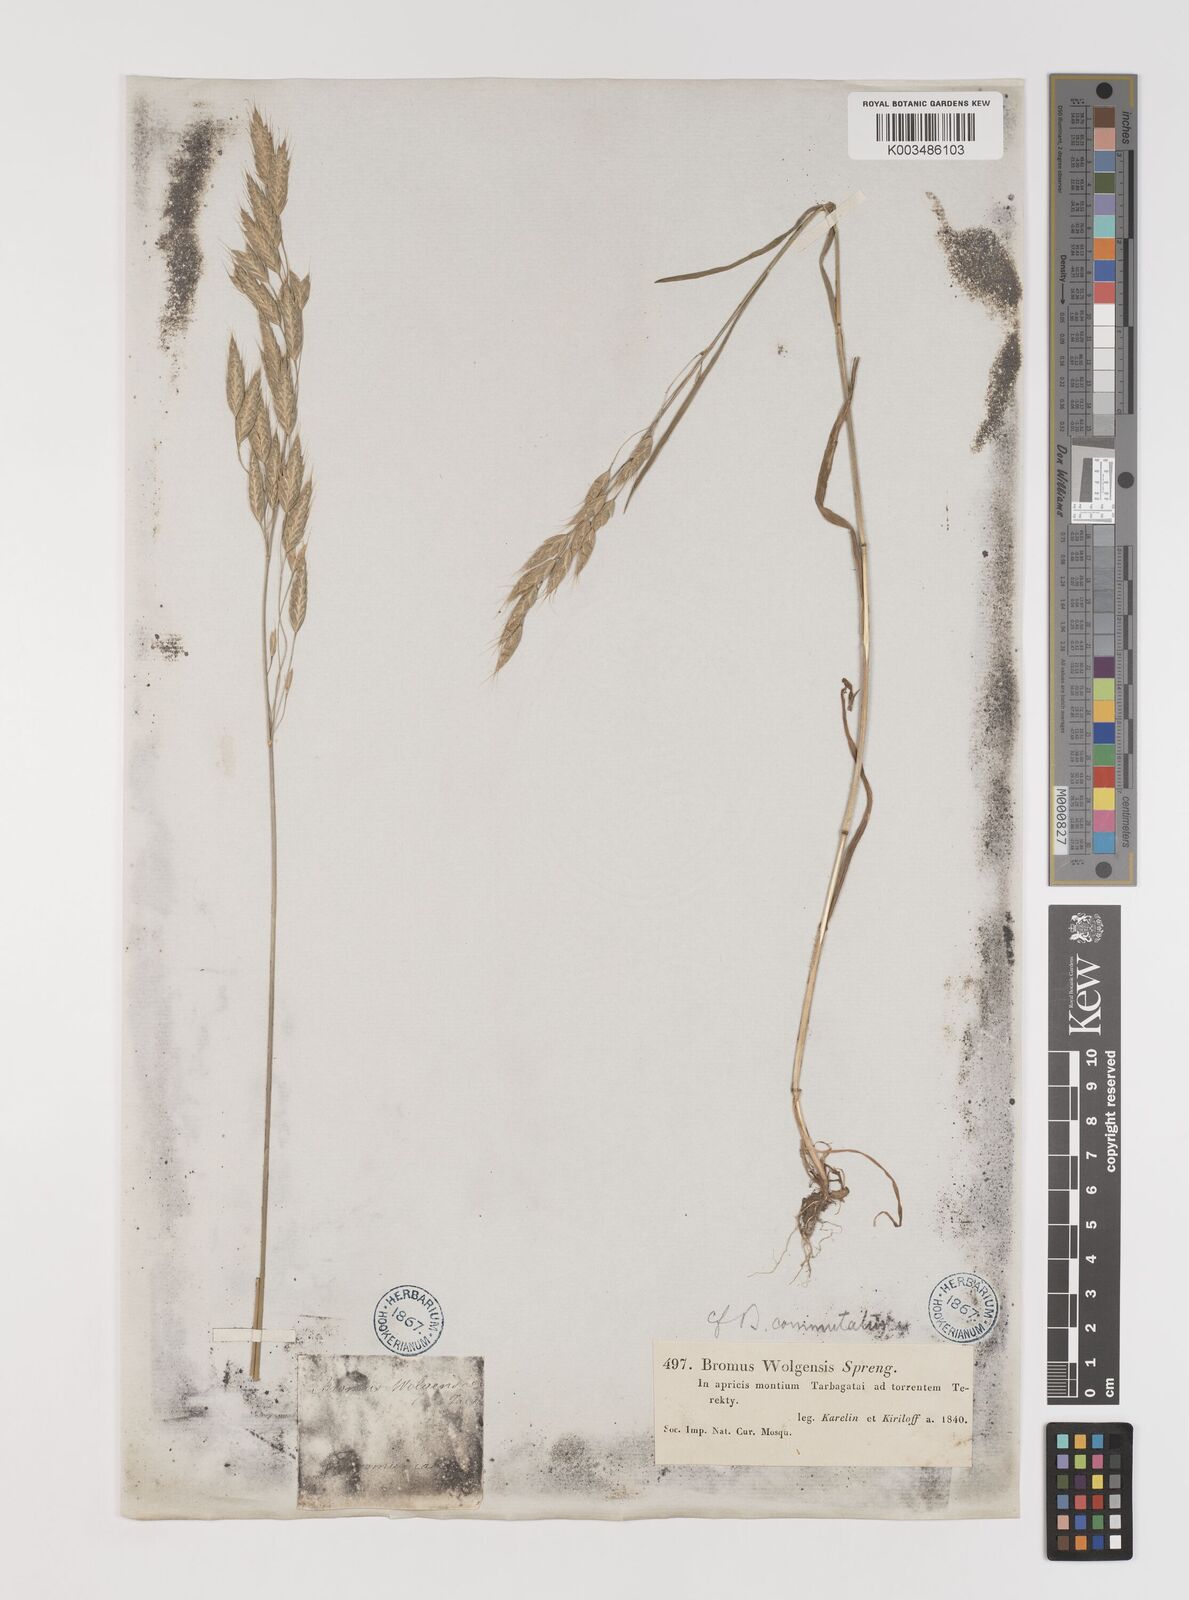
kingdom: Plantae
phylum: Tracheophyta
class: Liliopsida
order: Poales
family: Poaceae
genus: Bromus
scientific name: Bromus racemosus
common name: Bald brome
